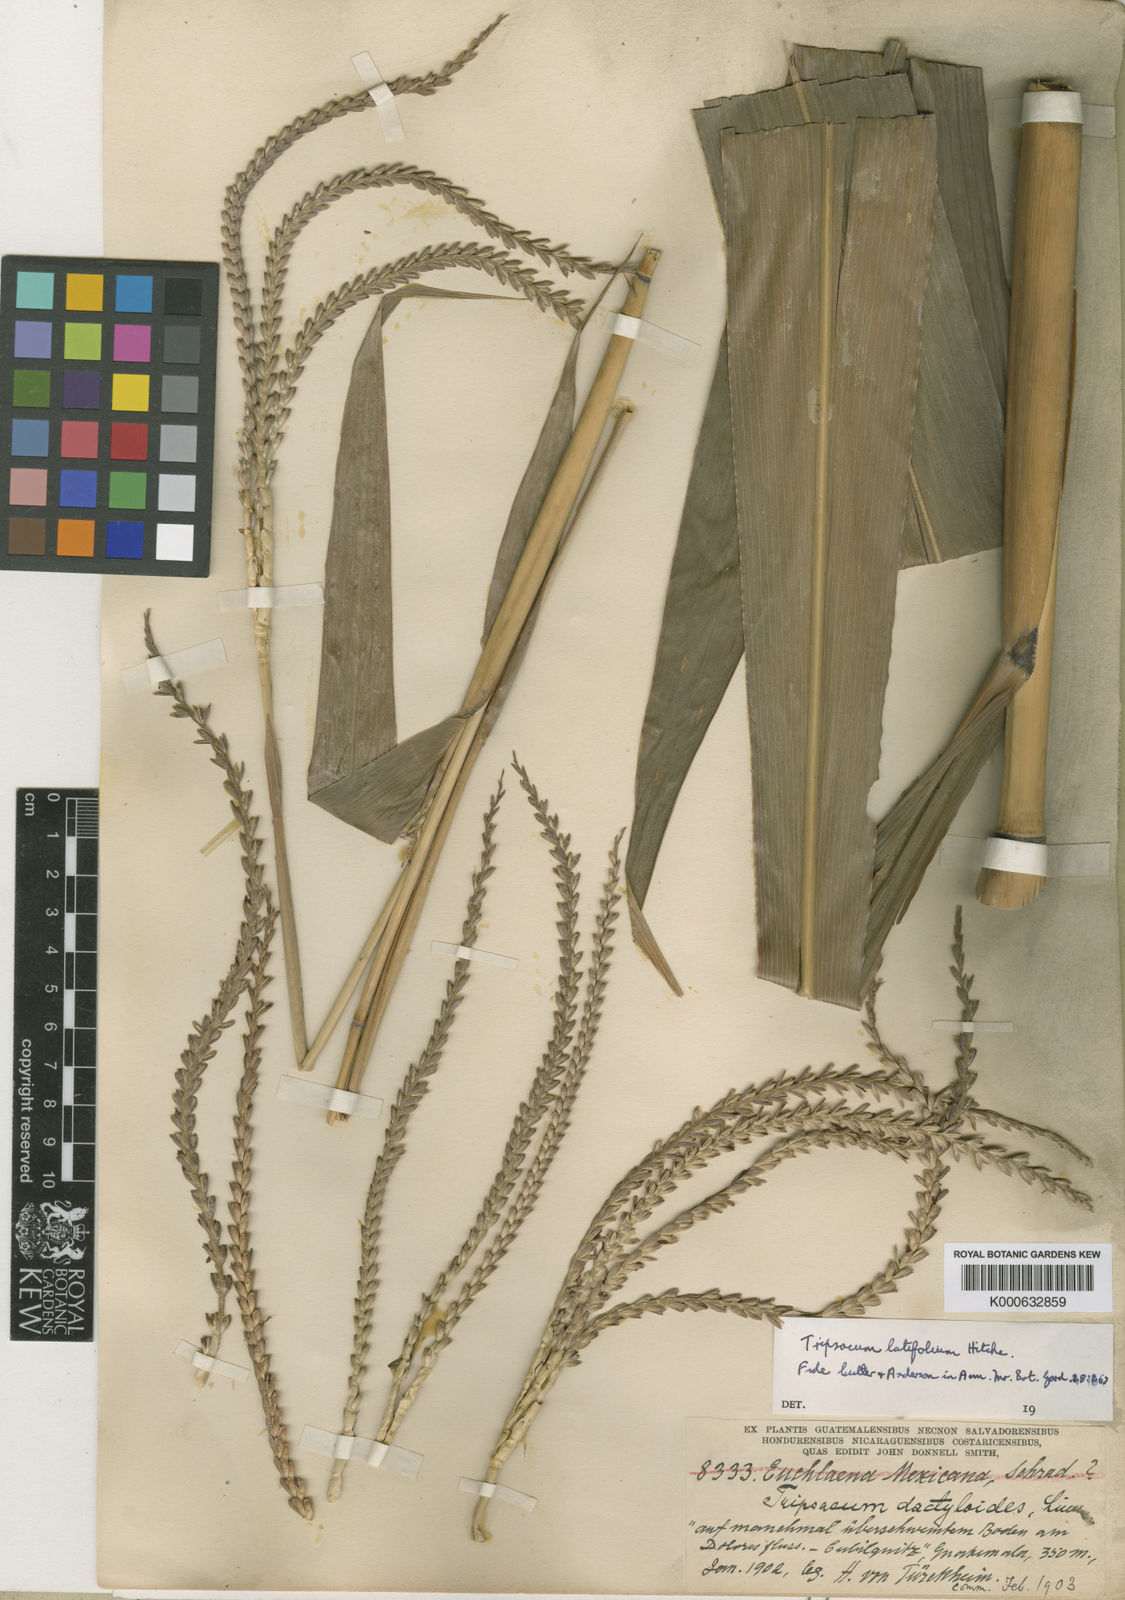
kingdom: Plantae
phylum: Tracheophyta
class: Liliopsida
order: Poales
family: Poaceae
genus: Tripsacum
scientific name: Tripsacum latifolium
